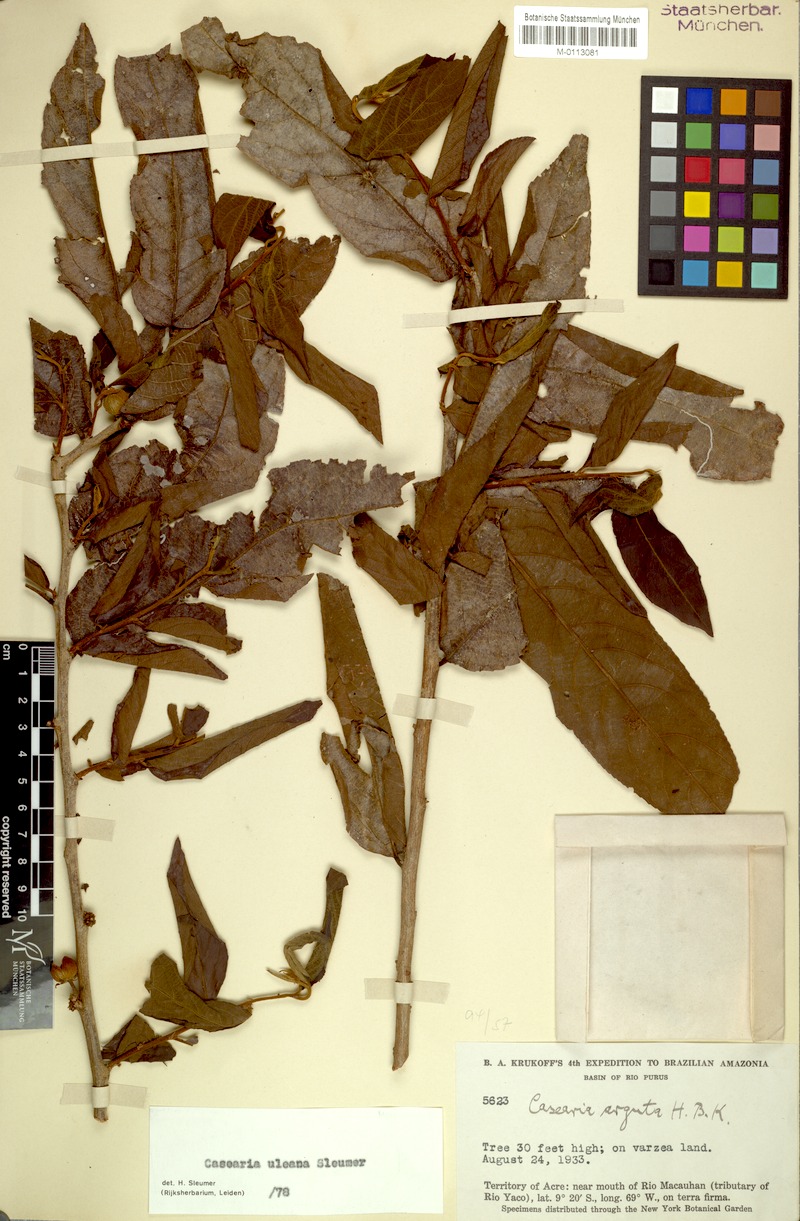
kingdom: Plantae
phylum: Tracheophyta
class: Magnoliopsida
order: Malpighiales
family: Salicaceae
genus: Casearia
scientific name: Casearia uleana
